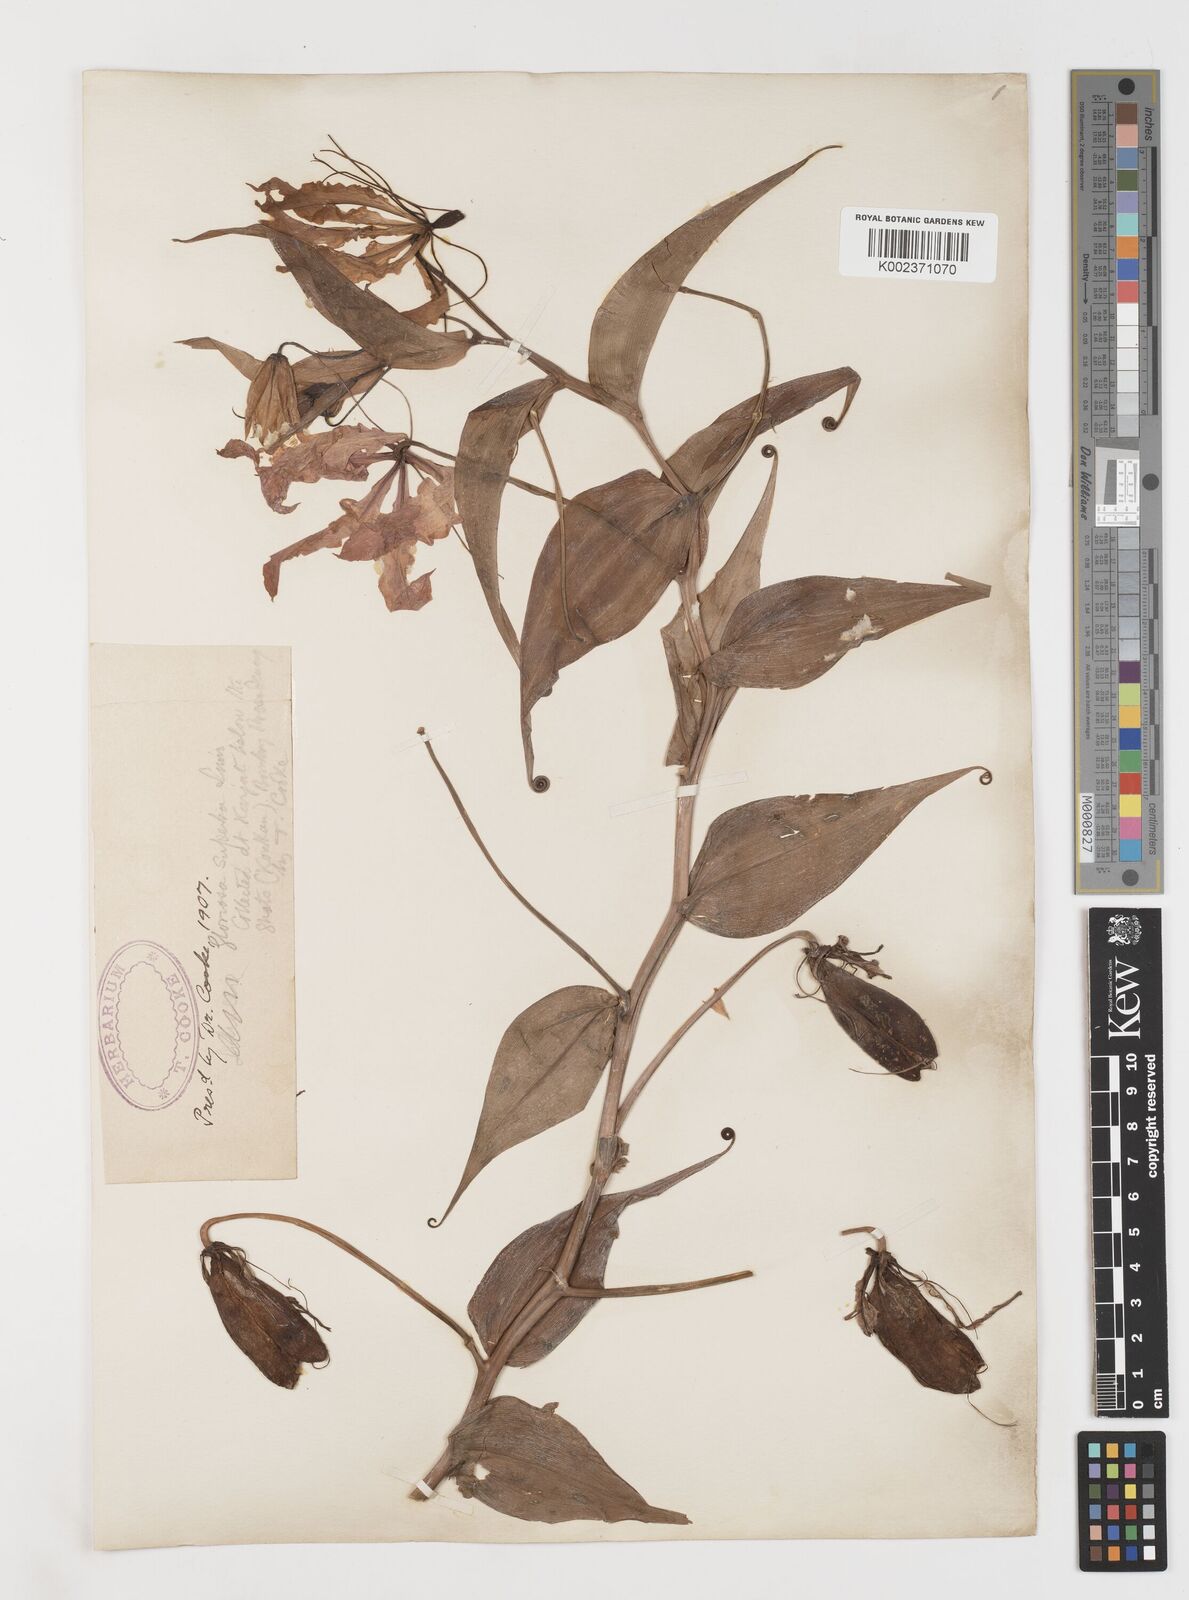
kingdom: Plantae
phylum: Tracheophyta
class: Liliopsida
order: Liliales
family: Colchicaceae
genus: Gloriosa
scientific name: Gloriosa superba
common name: Flame lily
